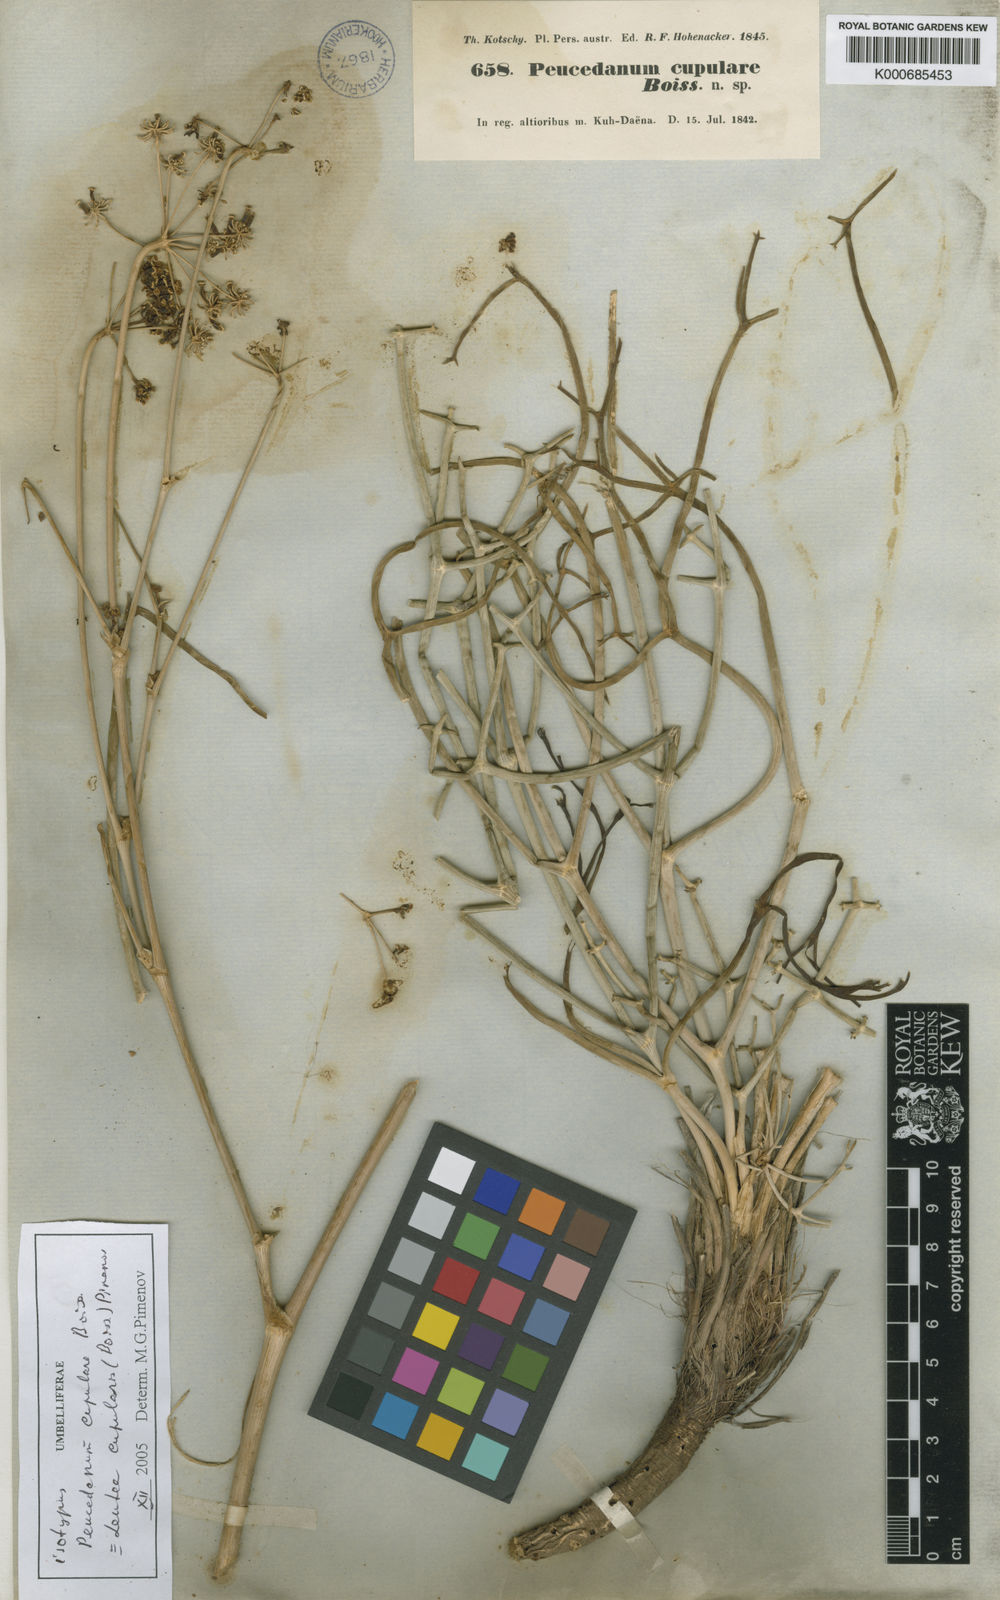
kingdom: Plantae
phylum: Tracheophyta
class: Magnoliopsida
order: Apiales
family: Apiaceae
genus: Ferula
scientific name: Ferula cupularis
